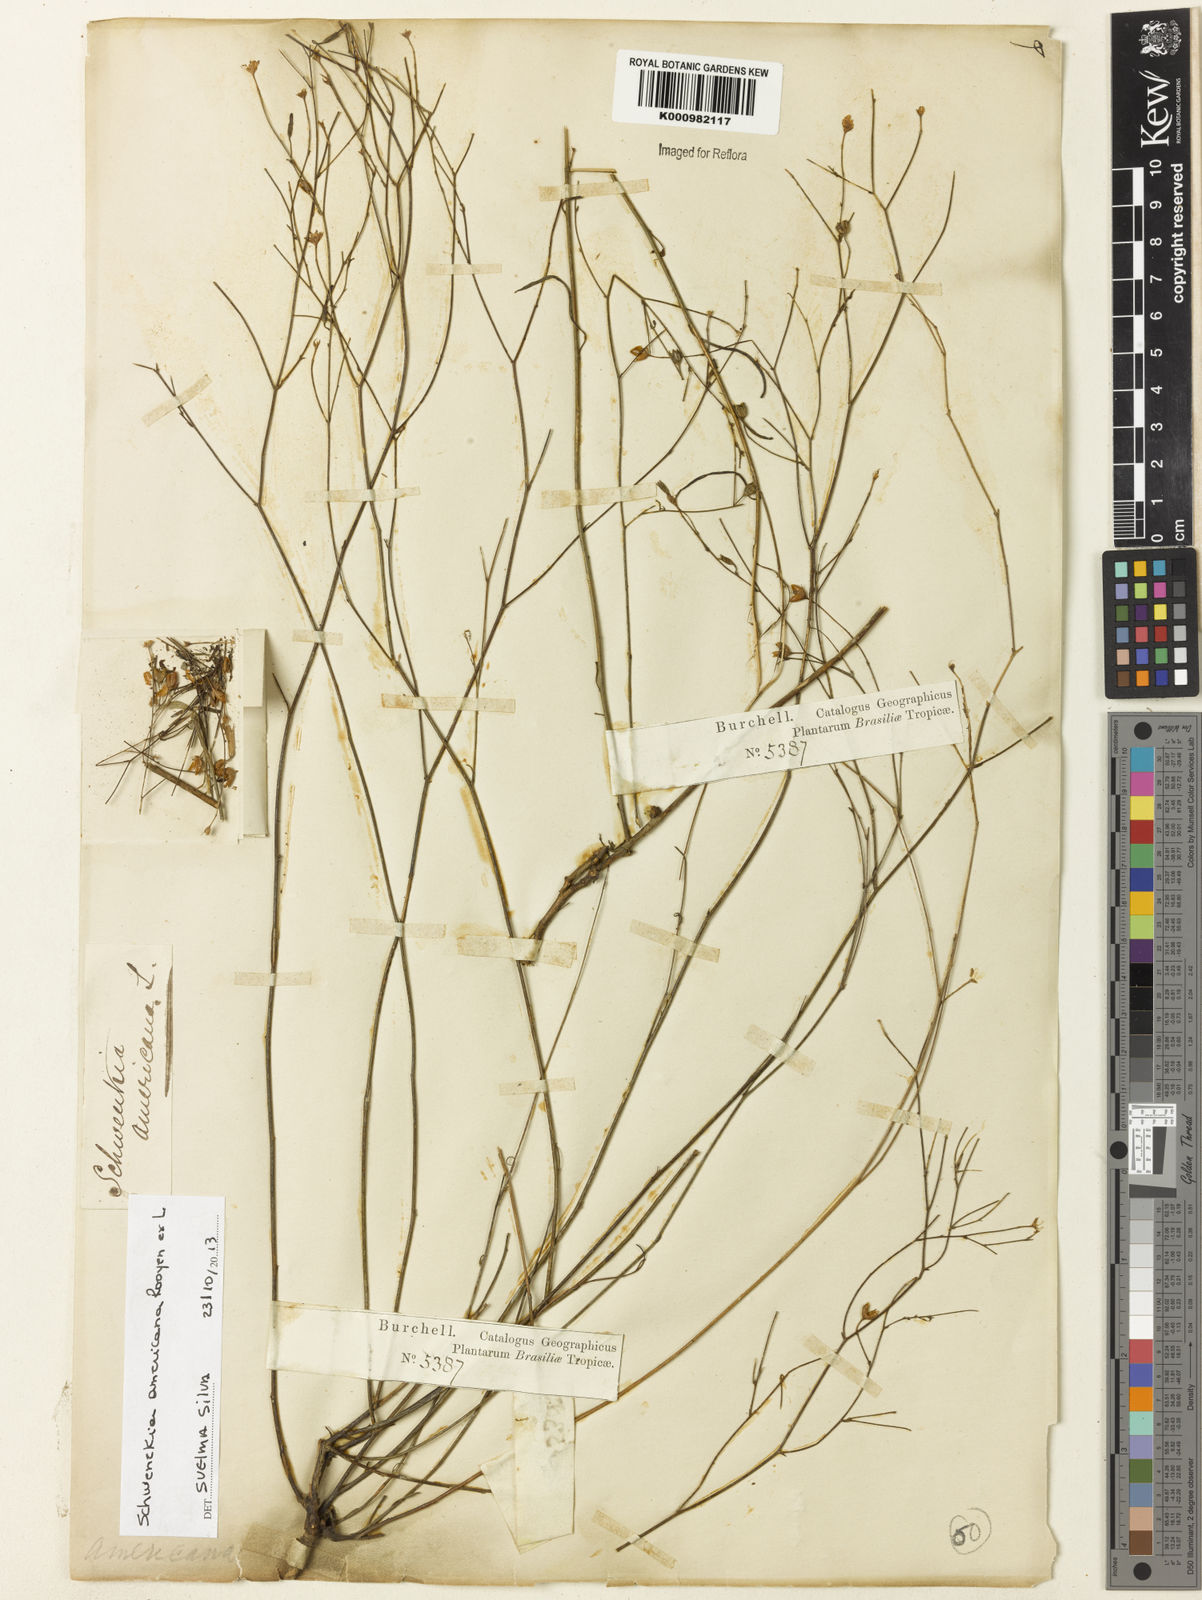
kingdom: Plantae
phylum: Tracheophyta
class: Magnoliopsida
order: Solanales
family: Solanaceae
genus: Schwenckia
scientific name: Schwenckia americana
